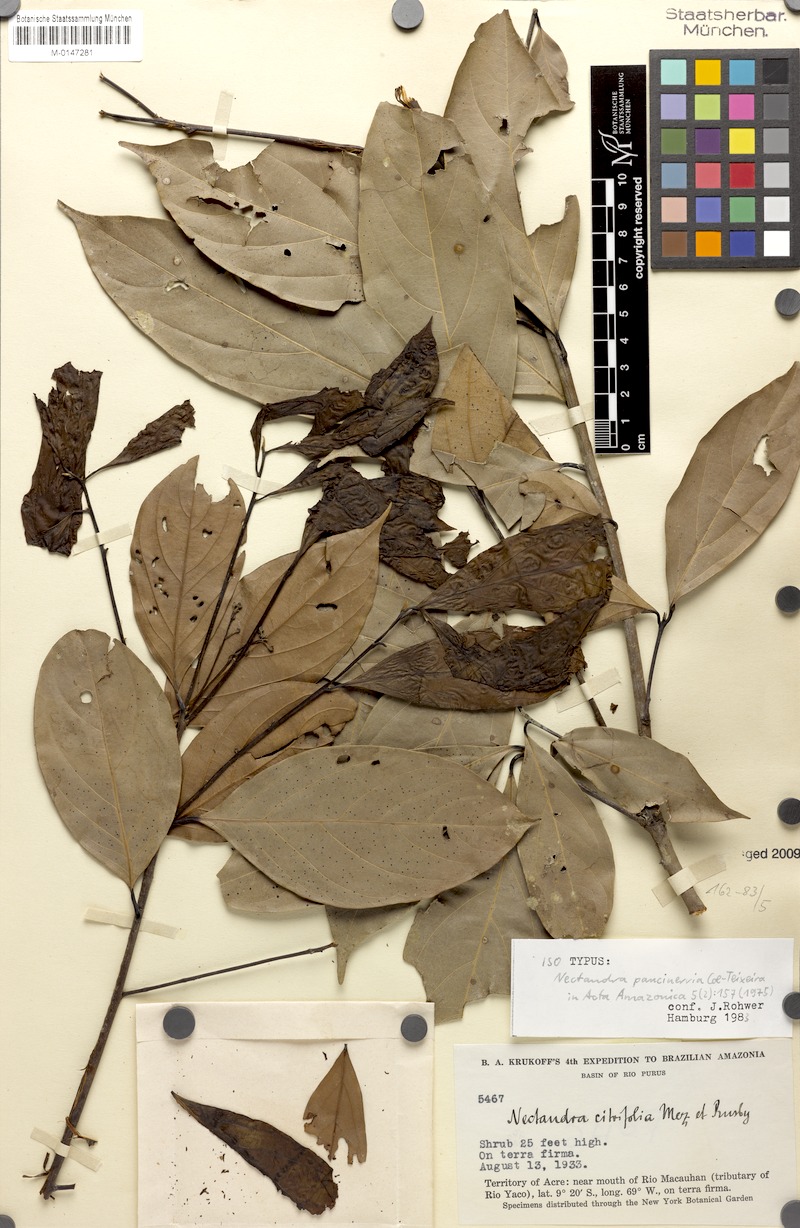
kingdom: Plantae
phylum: Tracheophyta
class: Magnoliopsida
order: Laurales
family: Lauraceae
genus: Nectandra
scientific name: Nectandra paucinervia
